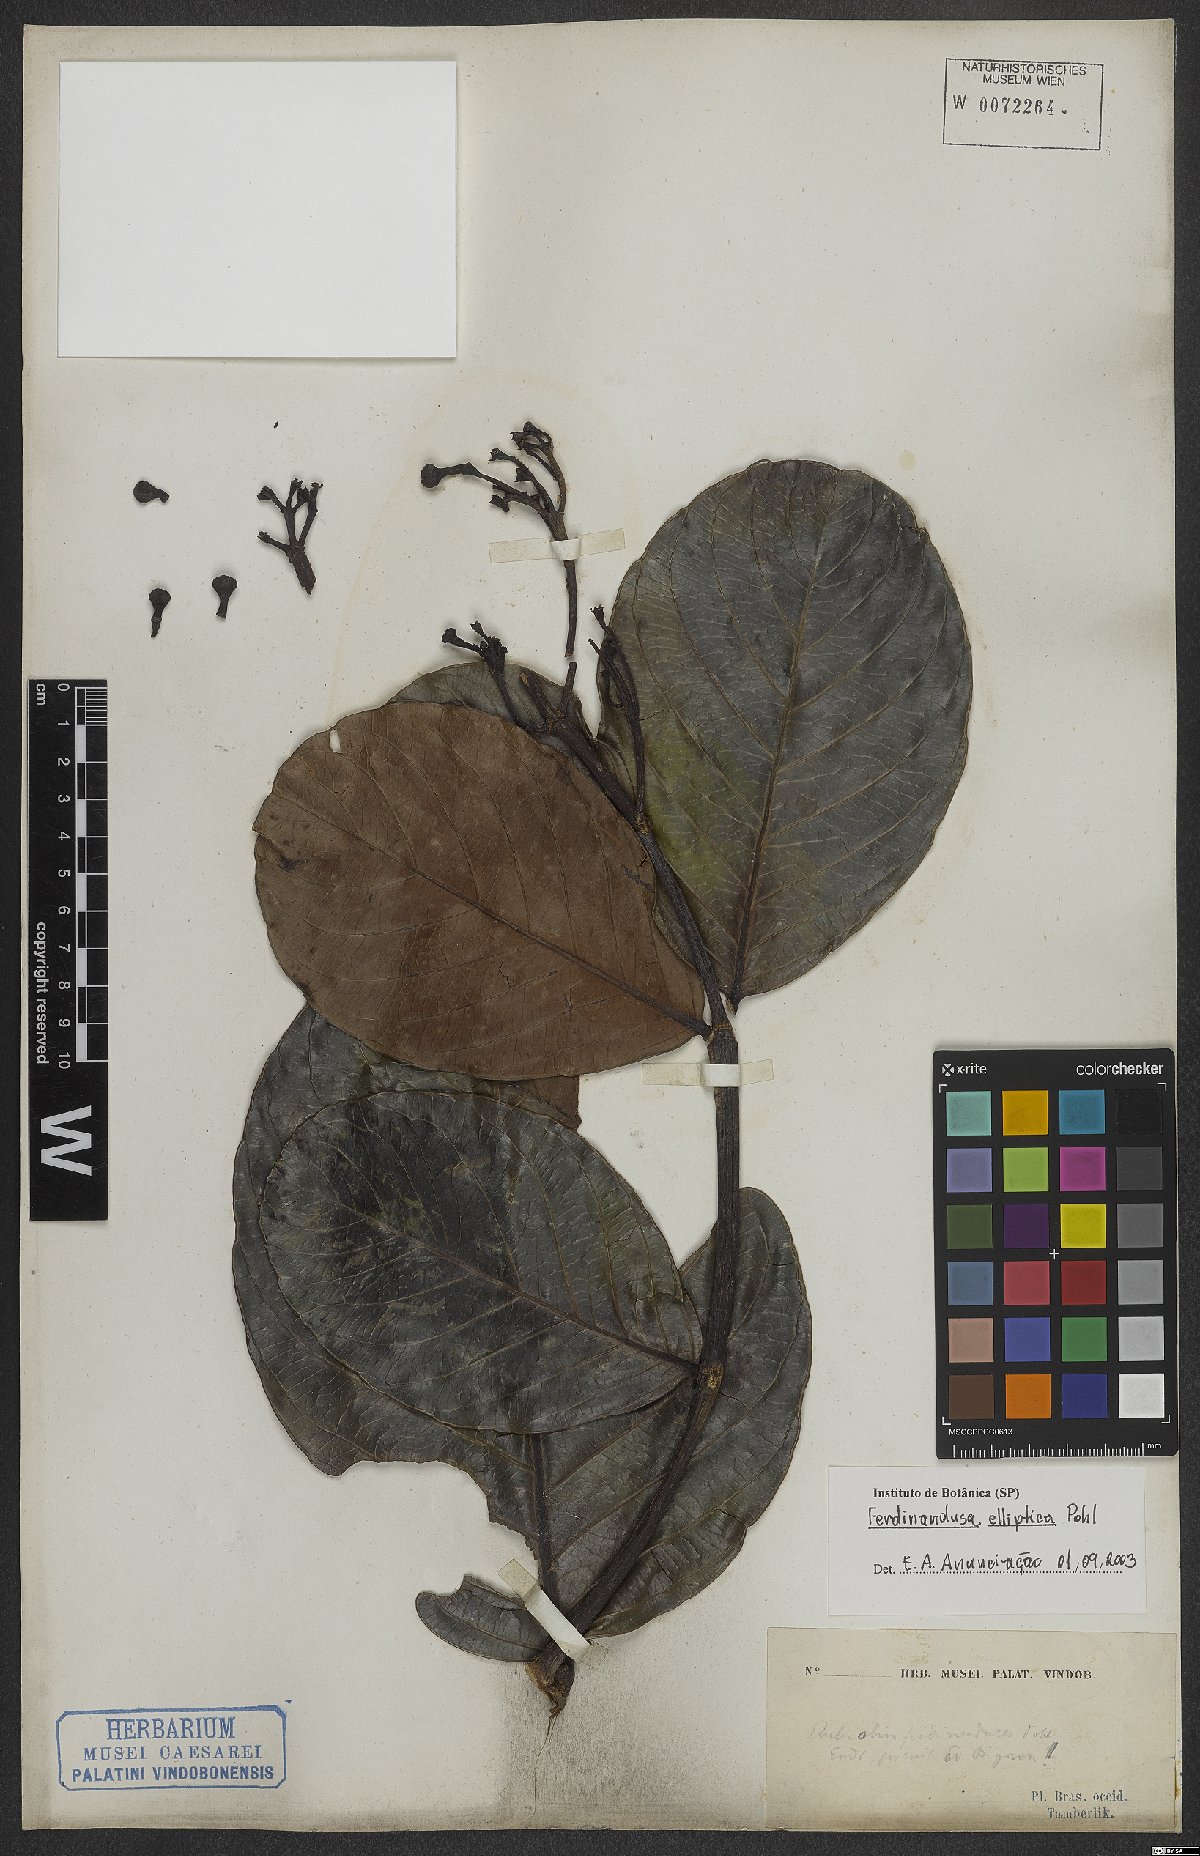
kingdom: Plantae
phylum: Tracheophyta
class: Magnoliopsida
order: Gentianales
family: Rubiaceae
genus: Ferdinandusa
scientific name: Ferdinandusa elliptica
